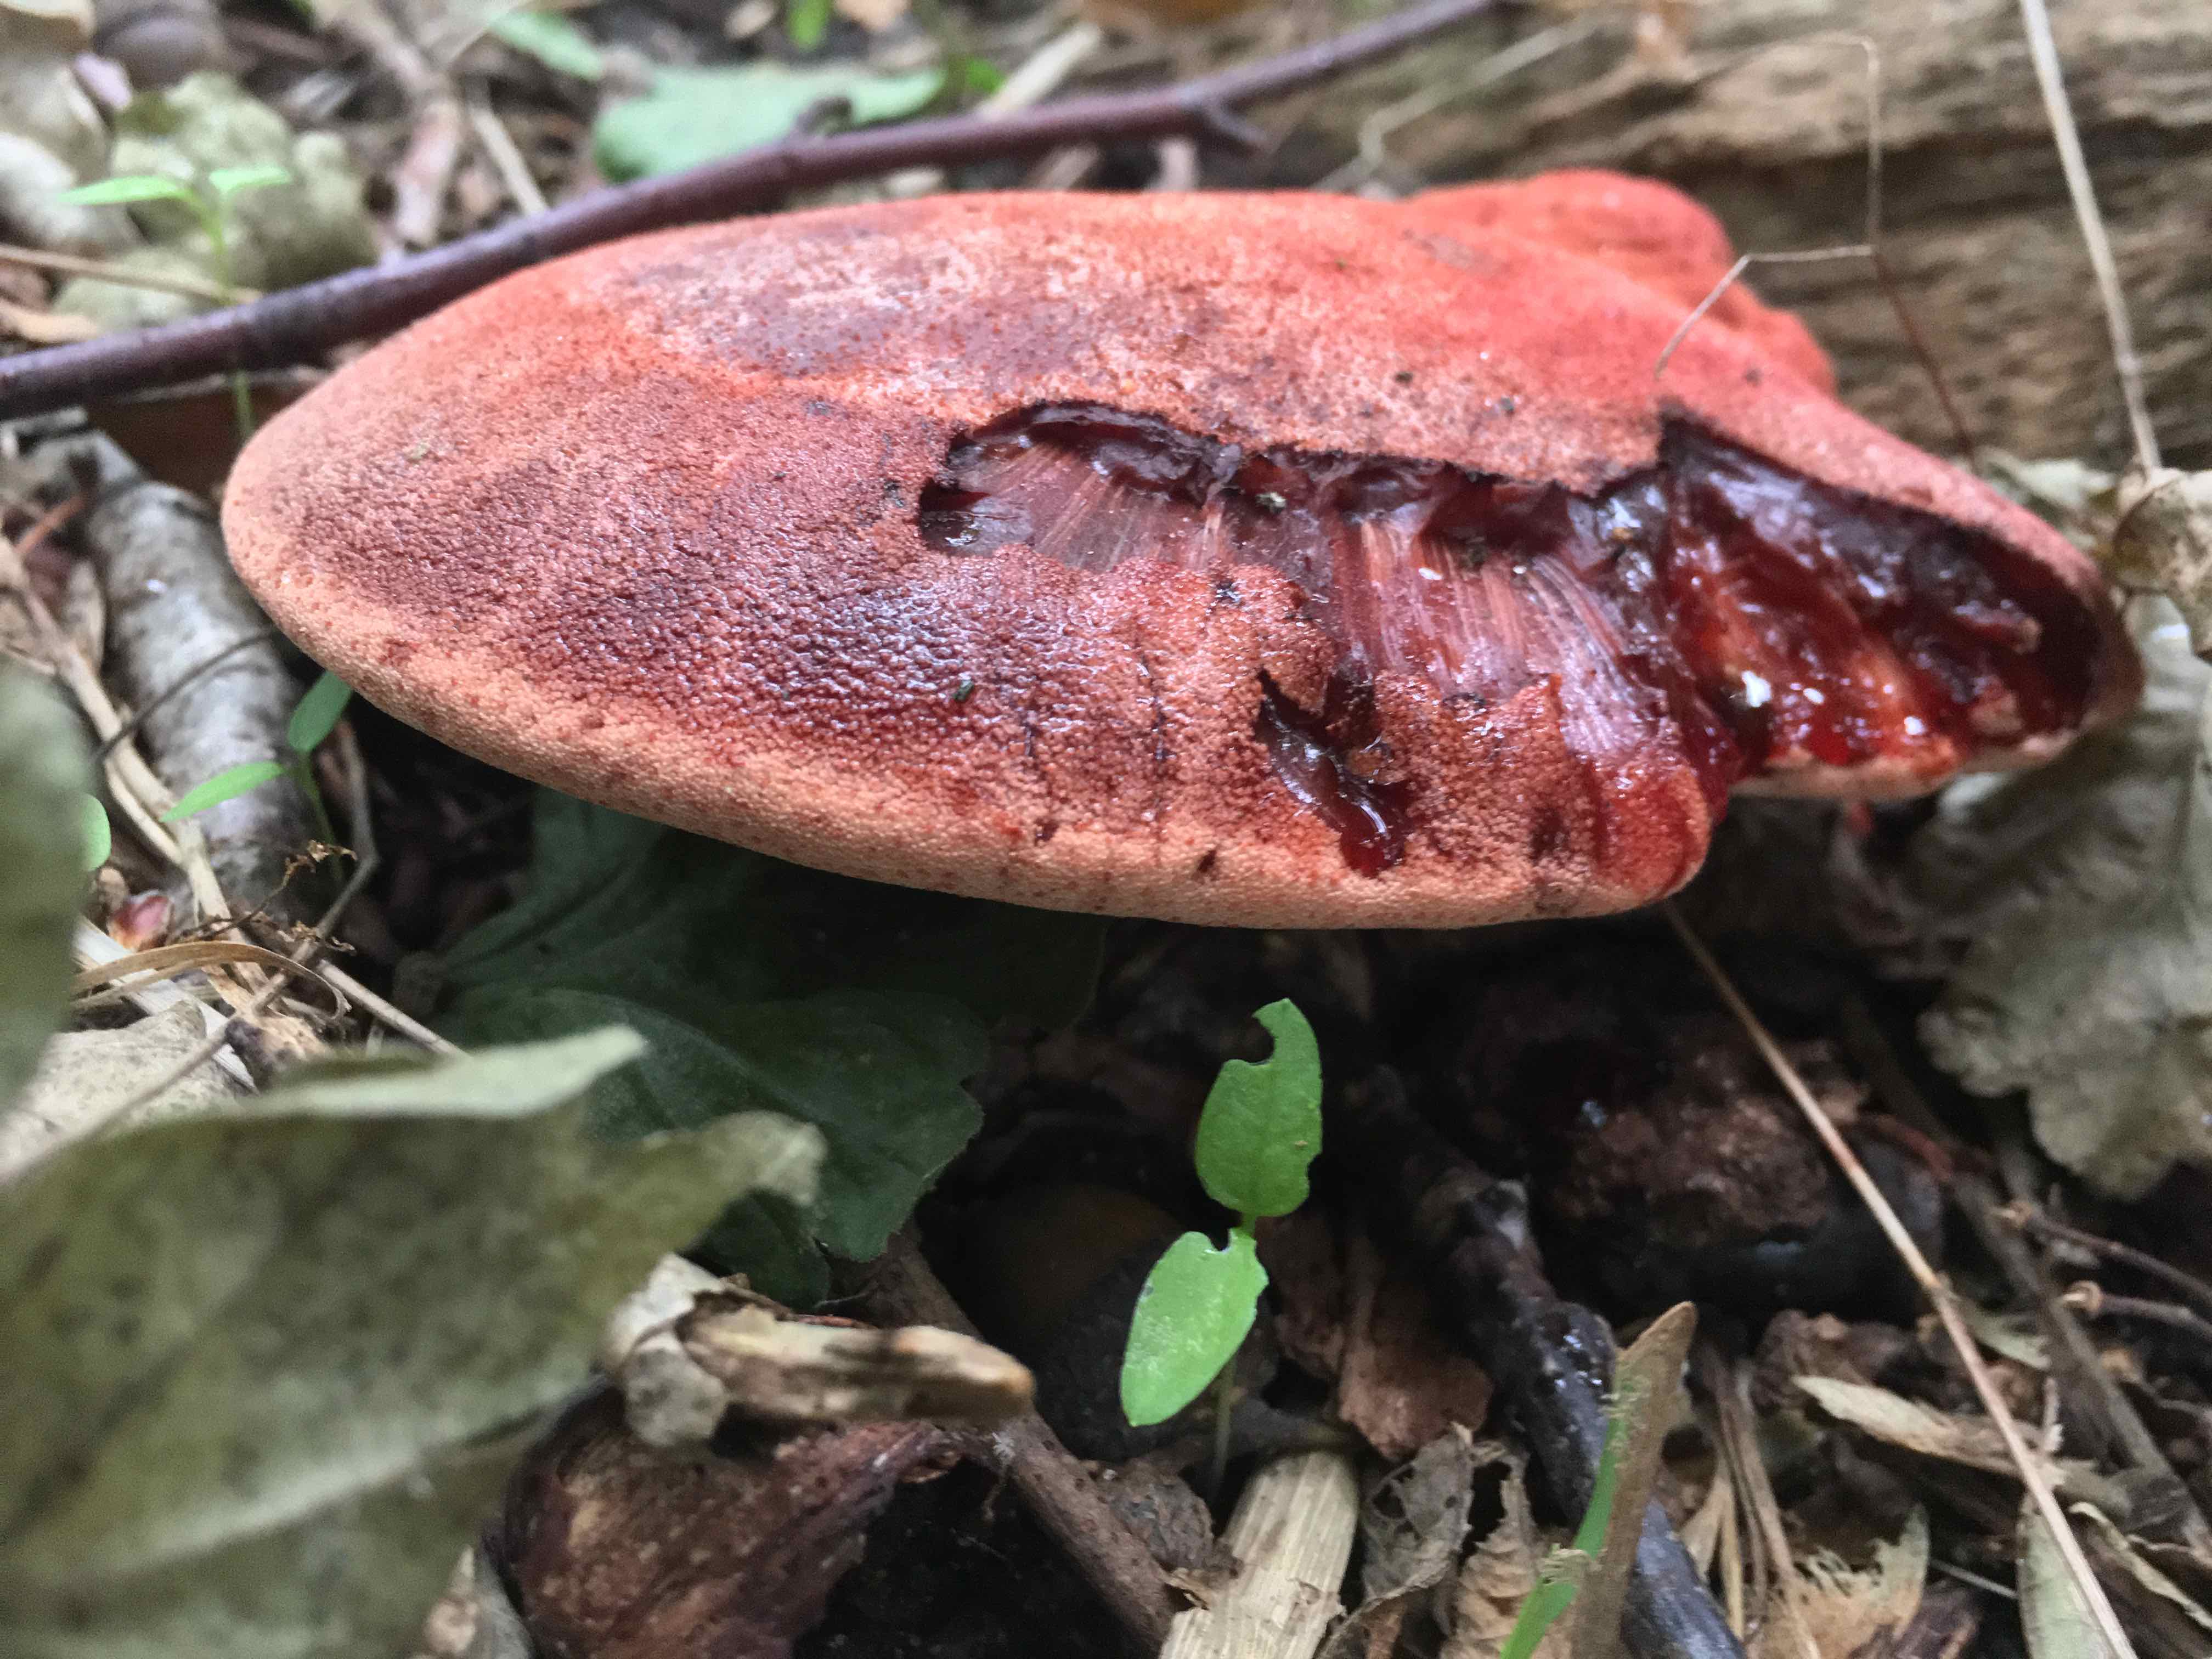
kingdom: Fungi
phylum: Basidiomycota
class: Agaricomycetes
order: Agaricales
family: Fistulinaceae
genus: Fistulina
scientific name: Fistulina hepatica
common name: oksetunge
